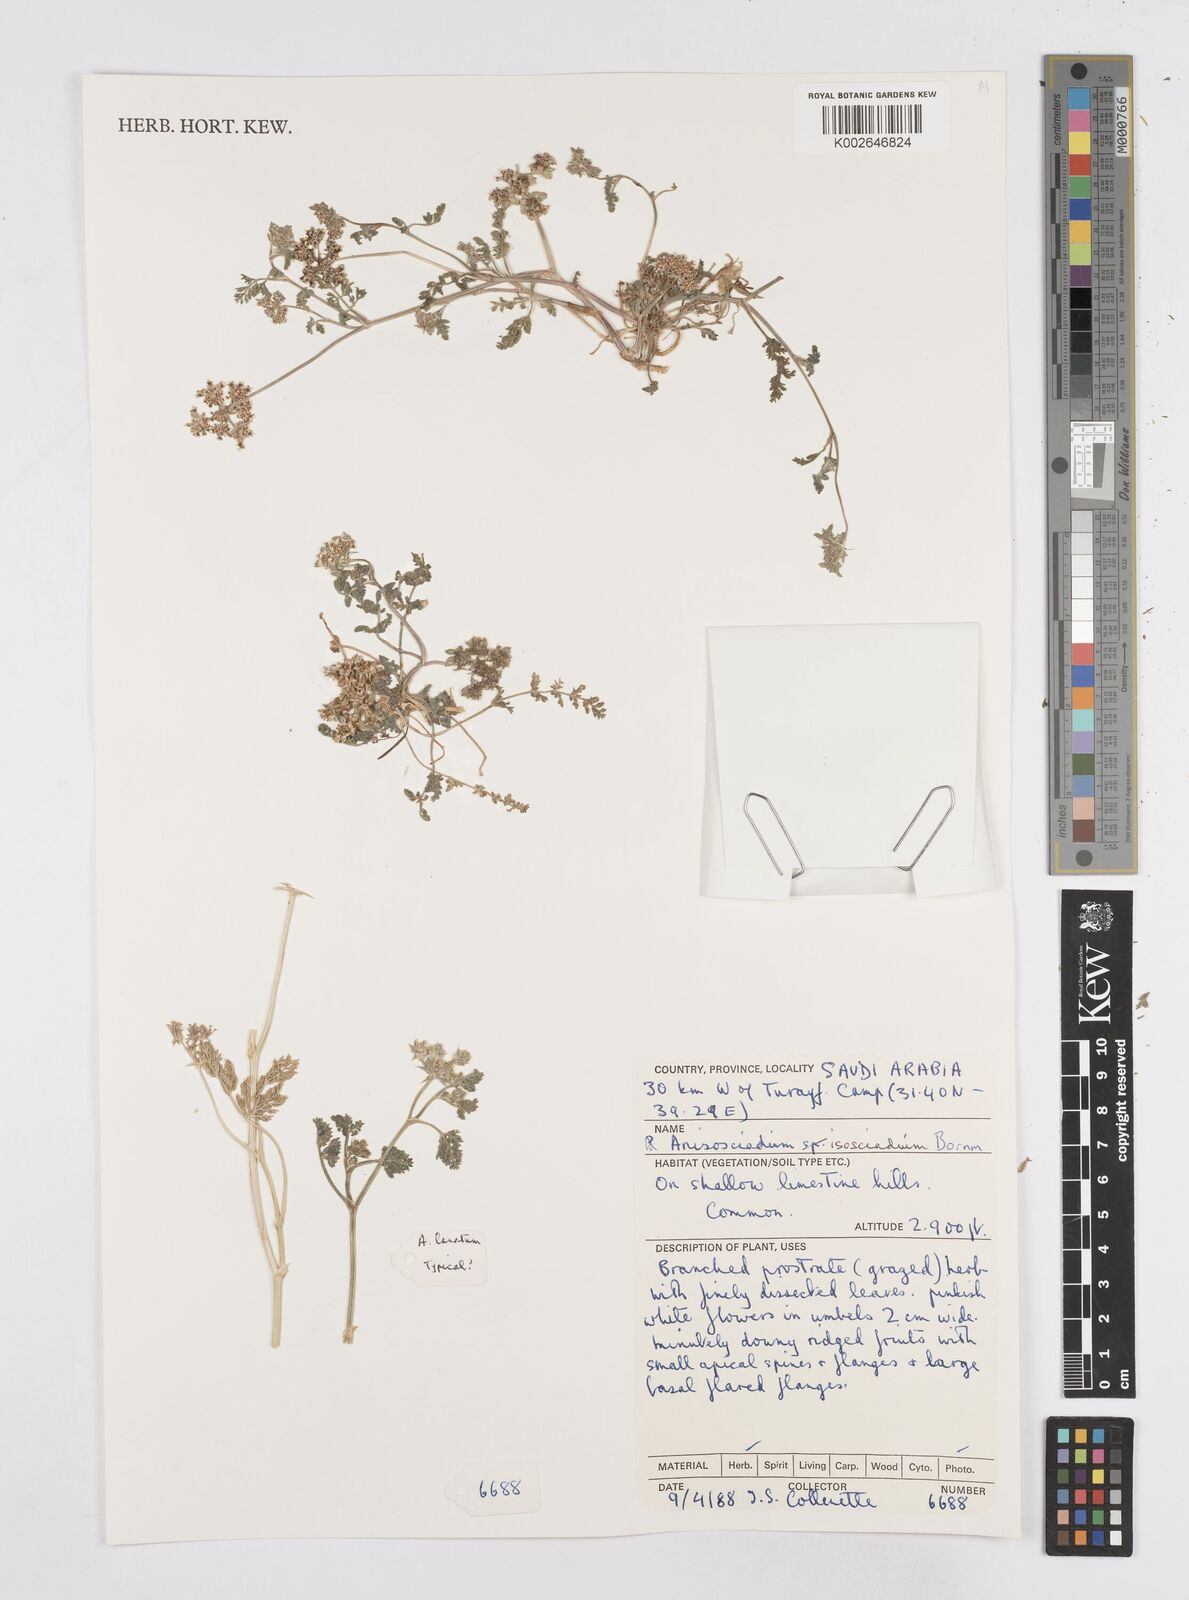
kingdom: Plantae
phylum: Tracheophyta
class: Magnoliopsida
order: Apiales
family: Apiaceae
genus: Anisosciadium
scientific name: Anisosciadium isosciadium
